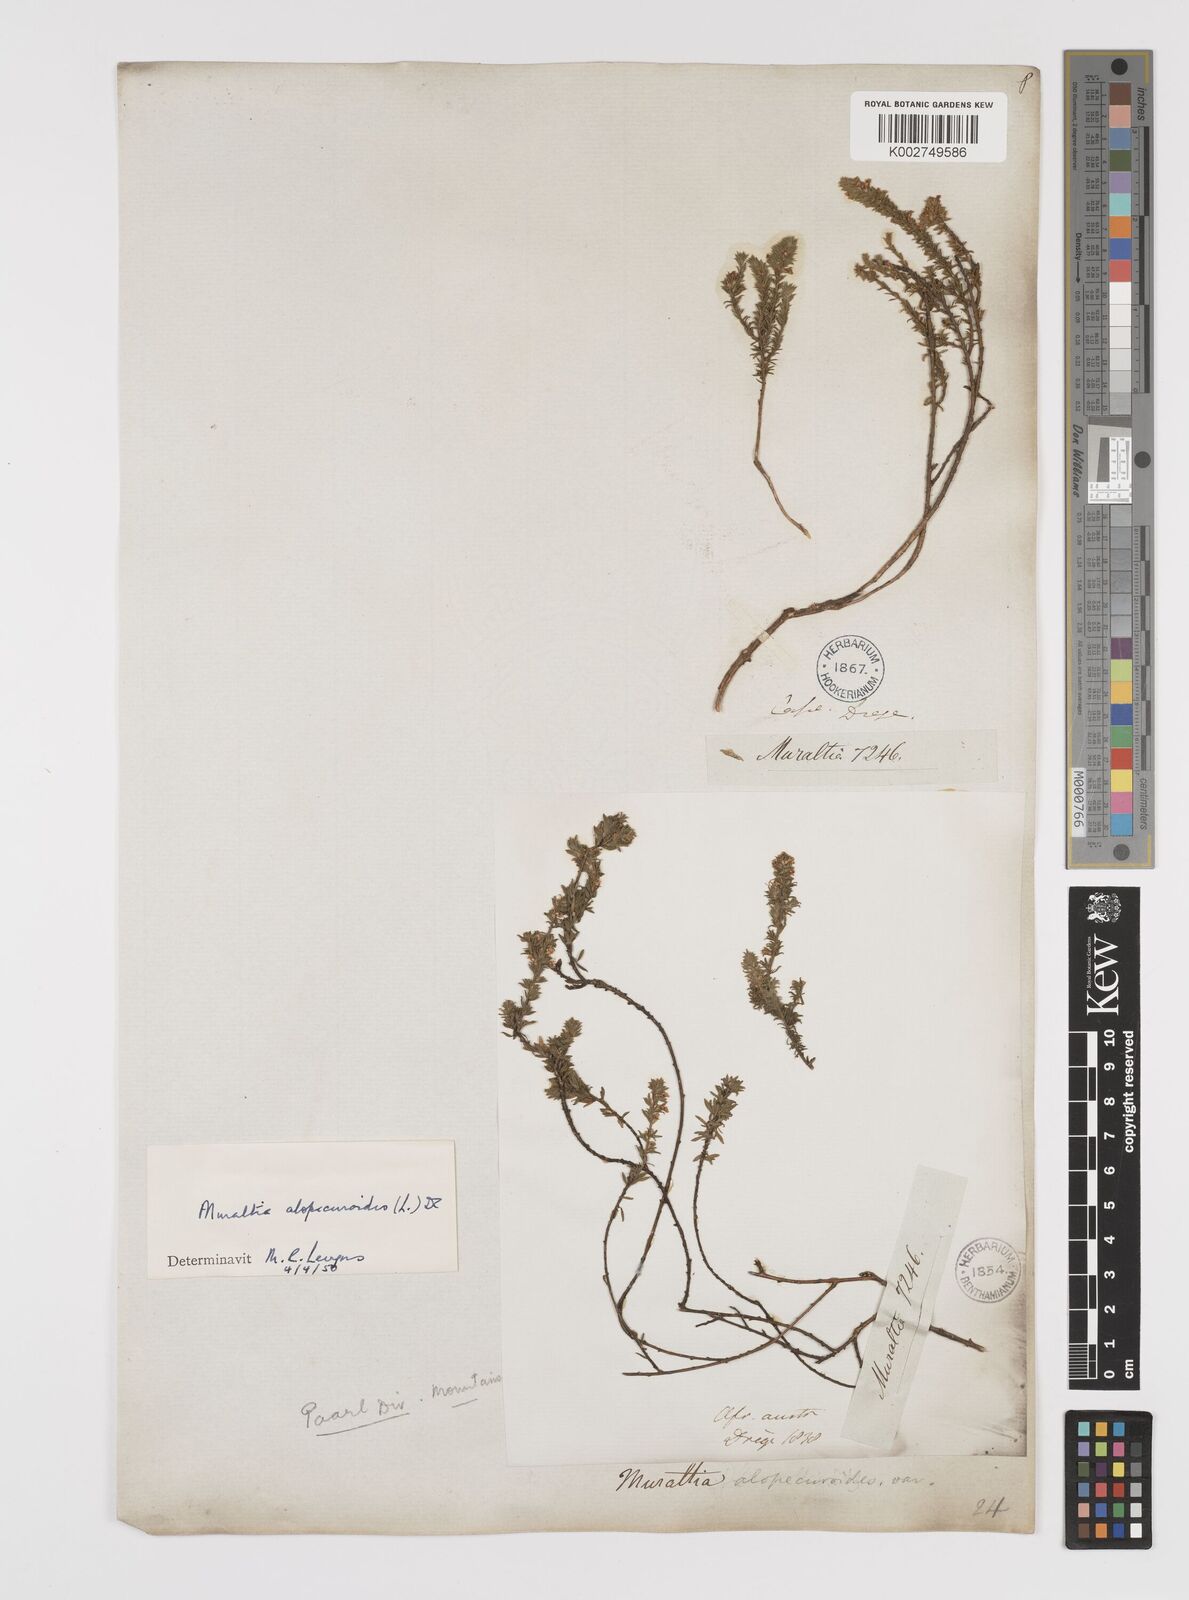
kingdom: Plantae
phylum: Tracheophyta
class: Magnoliopsida
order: Fabales
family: Polygalaceae
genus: Muraltia
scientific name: Muraltia alopecuroides
